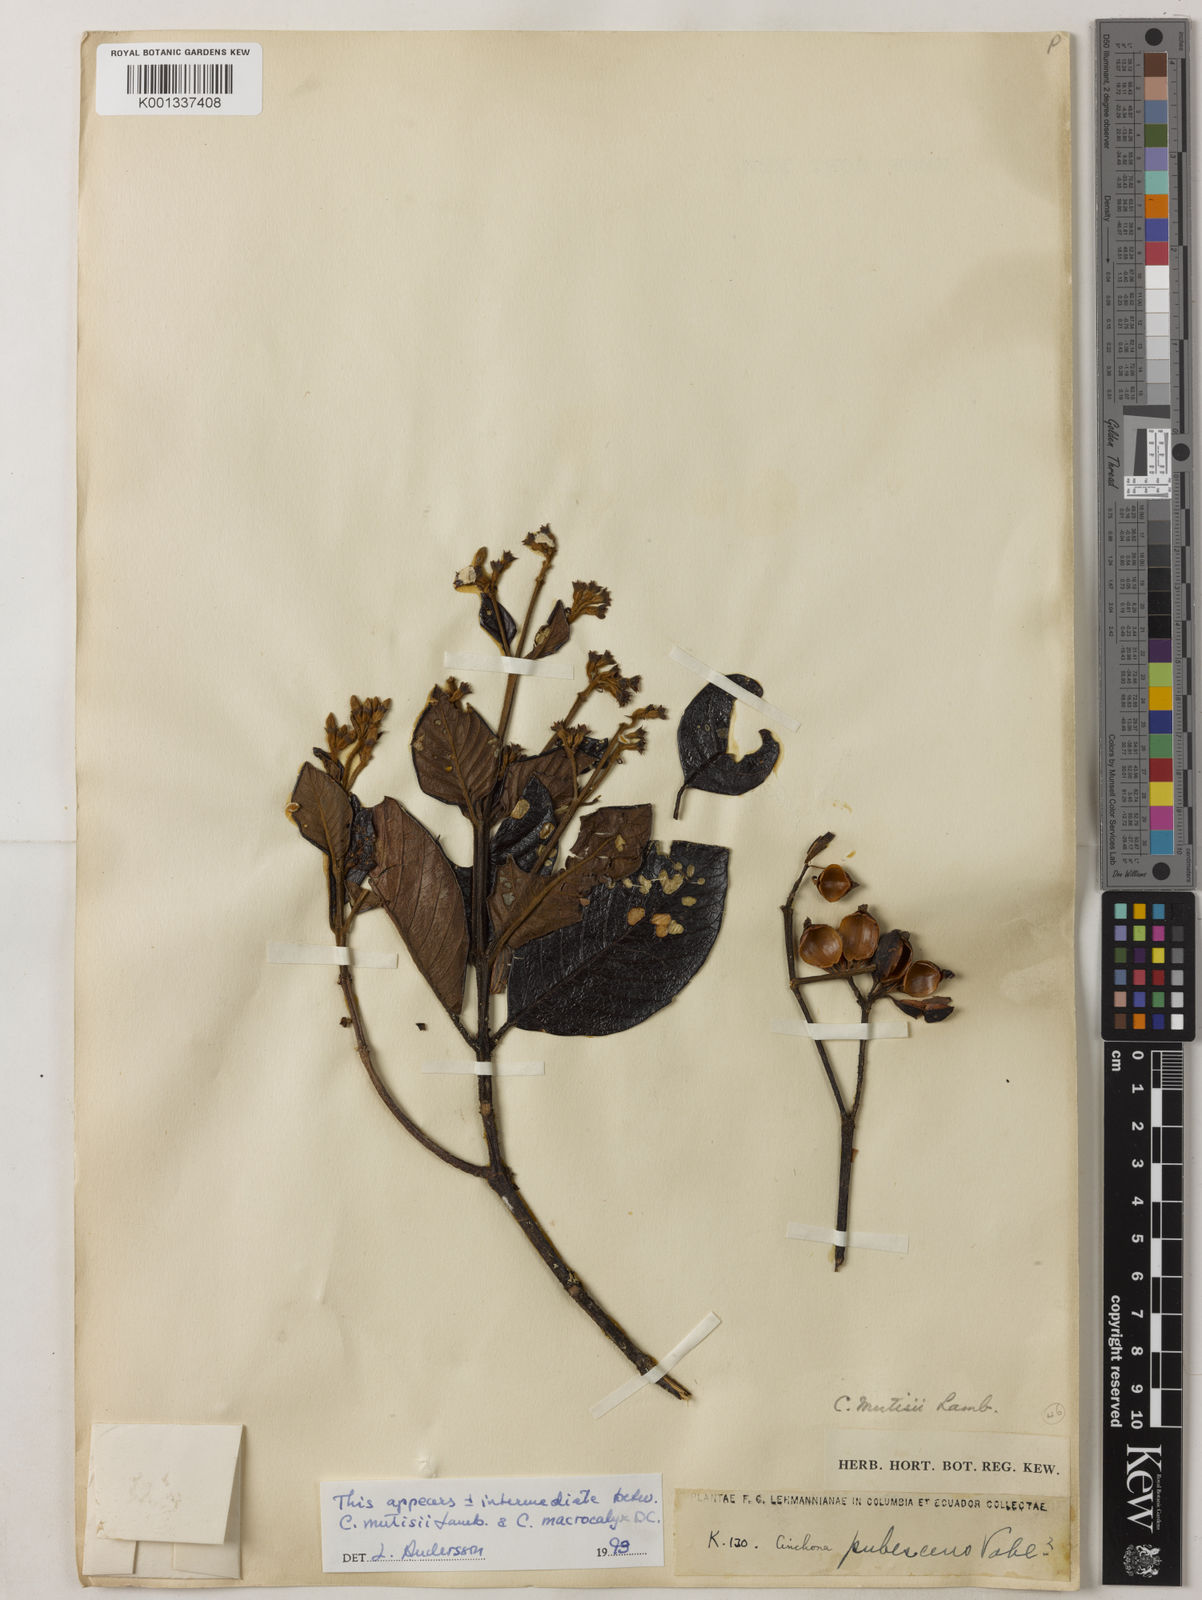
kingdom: Plantae
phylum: Tracheophyta
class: Magnoliopsida
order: Gentianales
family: Rubiaceae
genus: Cinchona
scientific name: Cinchona mutisii
